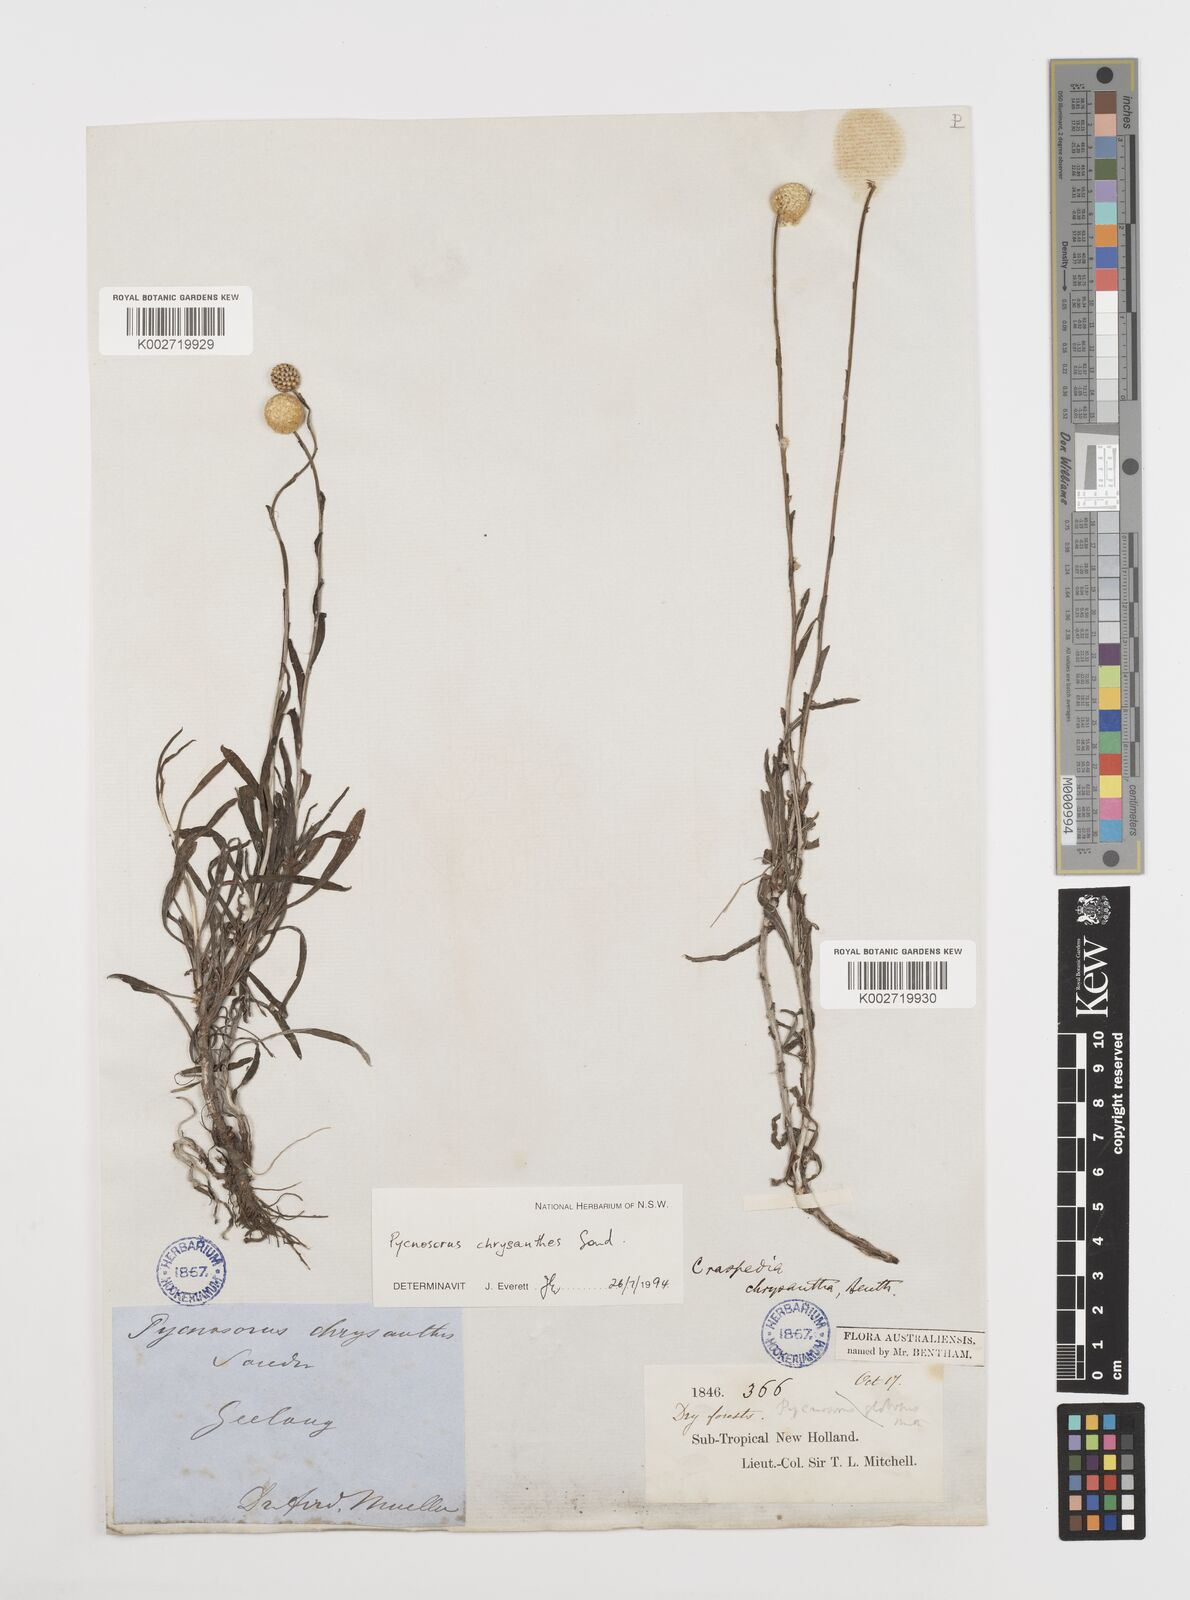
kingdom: Plantae
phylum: Tracheophyta
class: Magnoliopsida
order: Asterales
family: Asteraceae
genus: Pycnosorus
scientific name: Pycnosorus chrysanthus
